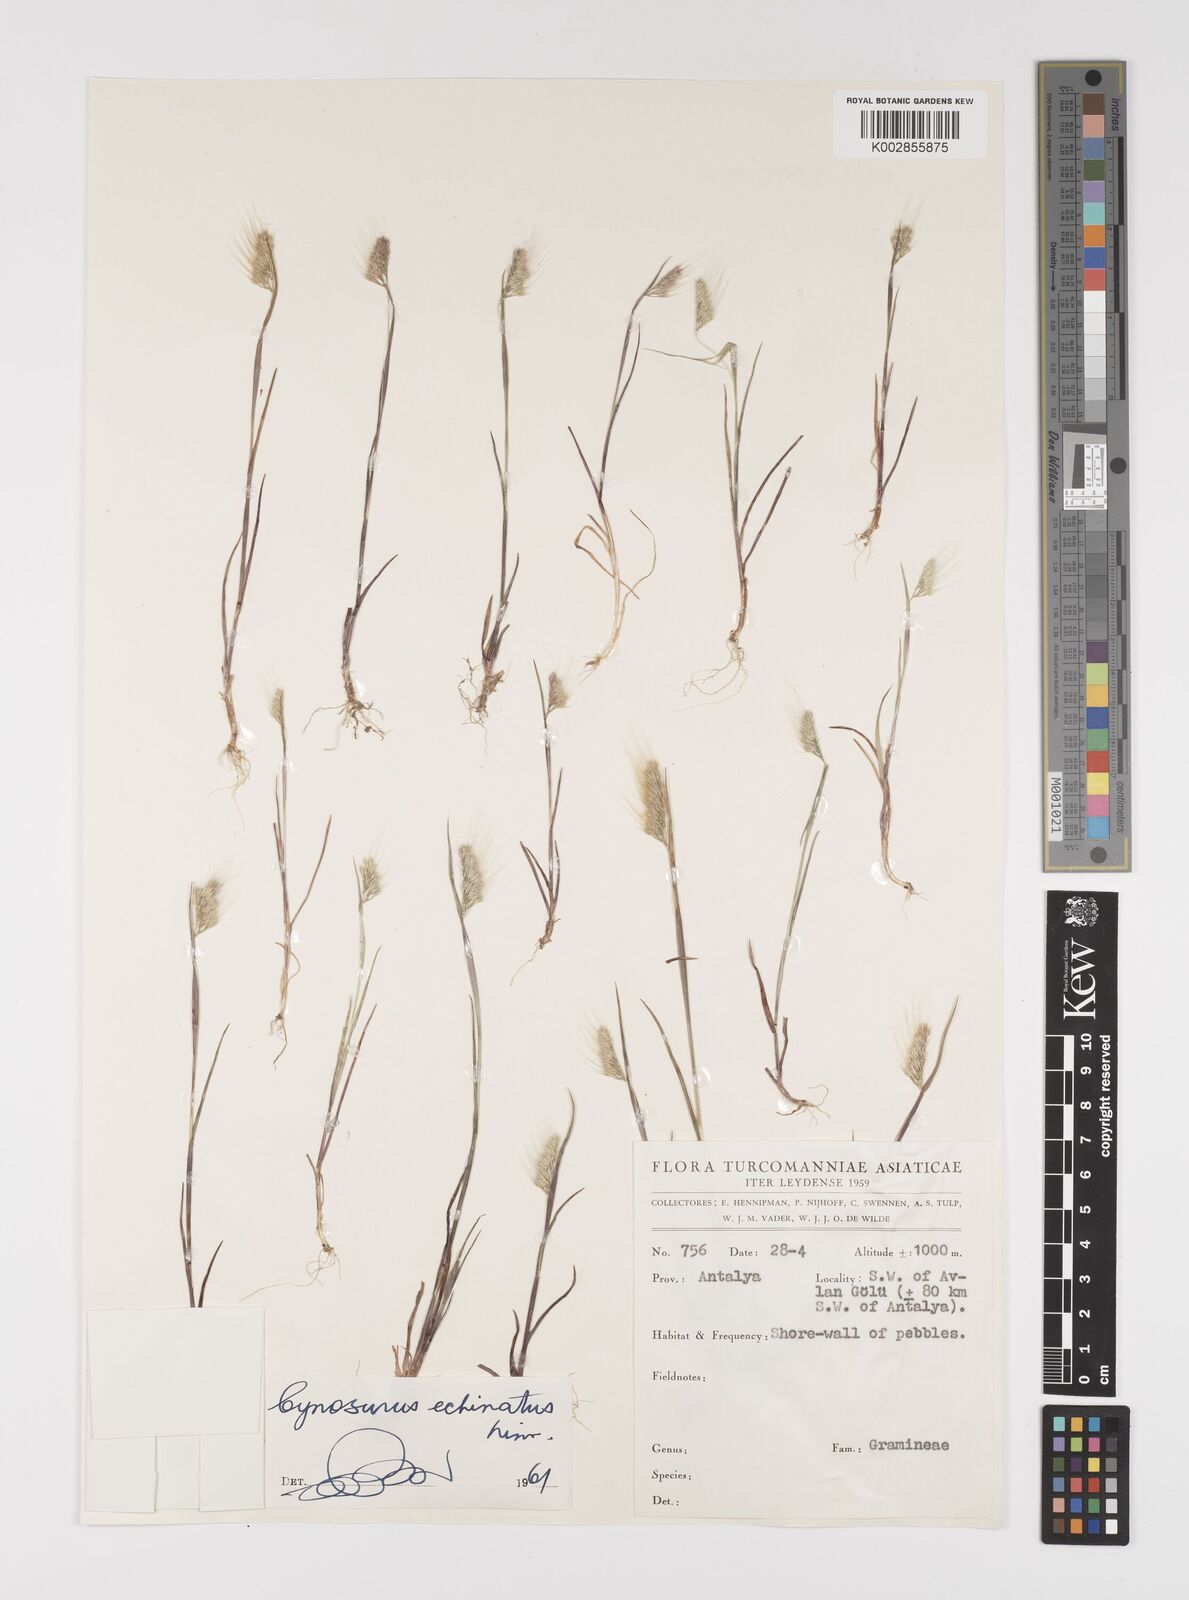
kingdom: Plantae
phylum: Tracheophyta
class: Liliopsida
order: Poales
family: Poaceae
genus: Cynosurus
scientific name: Cynosurus echinatus
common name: Rough dog's-tail
